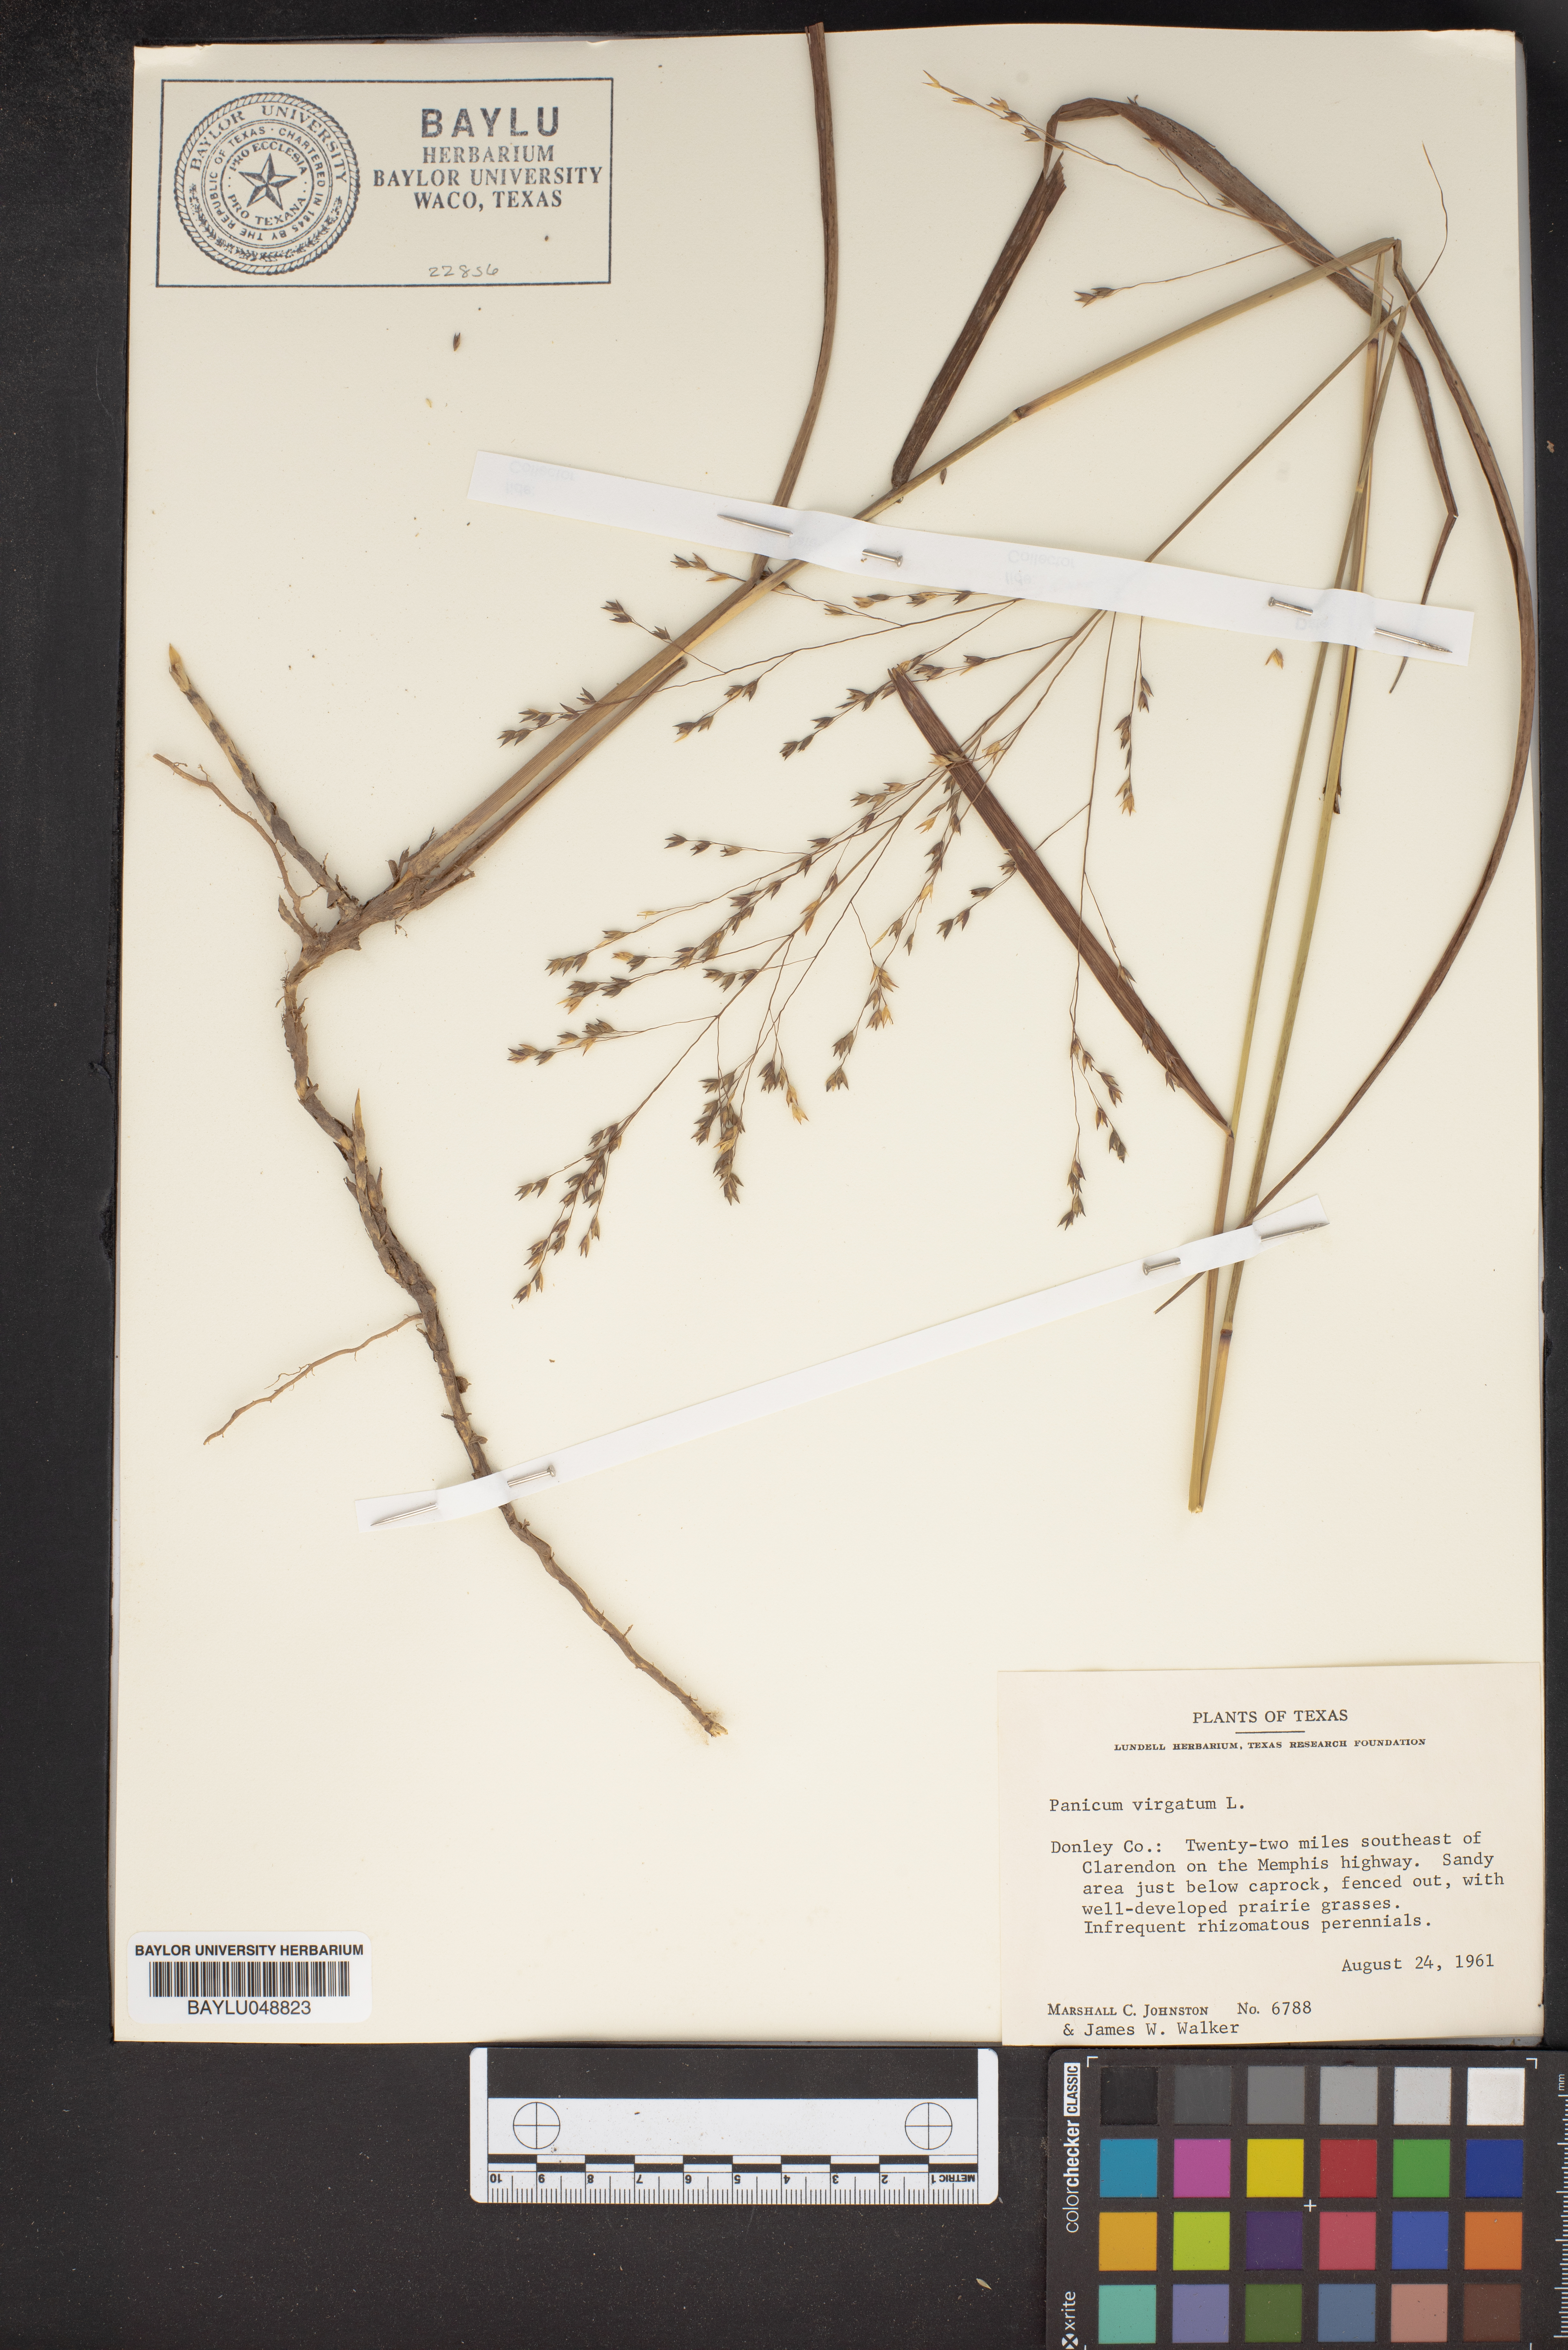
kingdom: Plantae
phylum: Tracheophyta
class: Liliopsida
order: Poales
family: Poaceae
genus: Panicum
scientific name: Panicum virgatum
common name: Switchgrass
